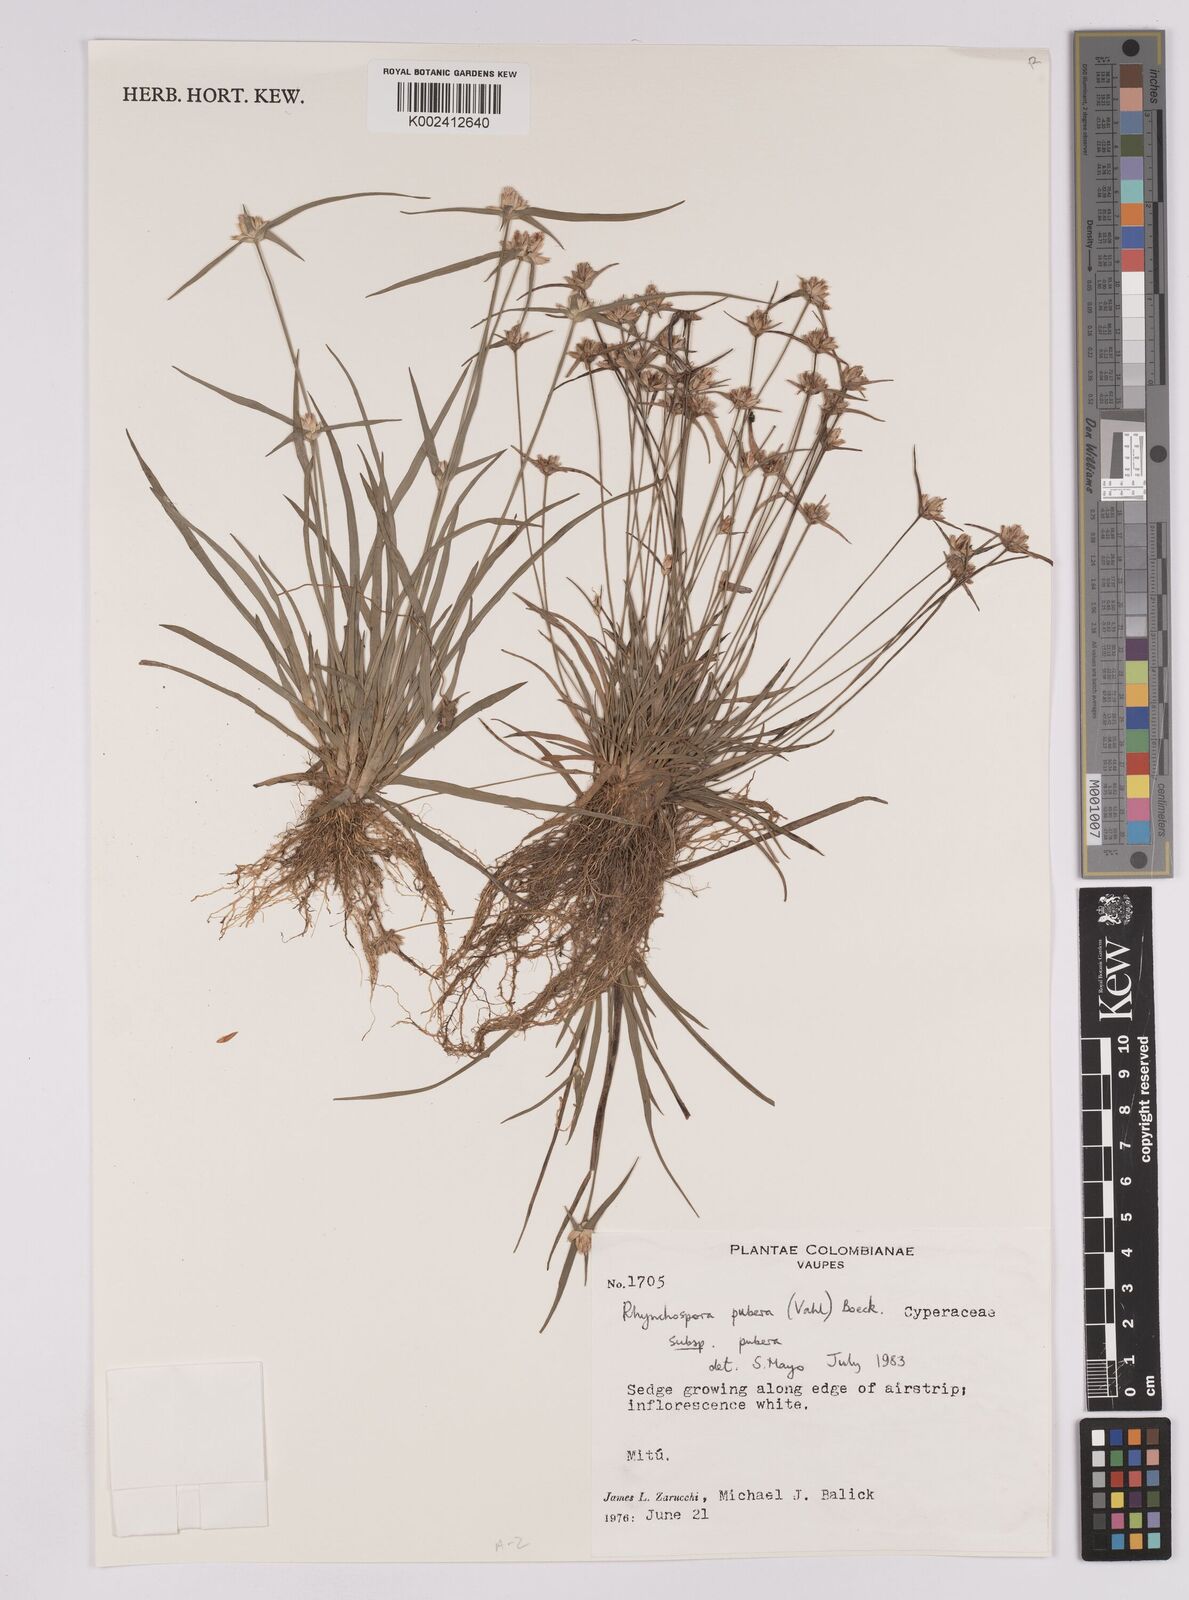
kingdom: Plantae
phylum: Tracheophyta
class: Liliopsida
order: Poales
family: Cyperaceae
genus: Rhynchospora
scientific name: Rhynchospora pubera
